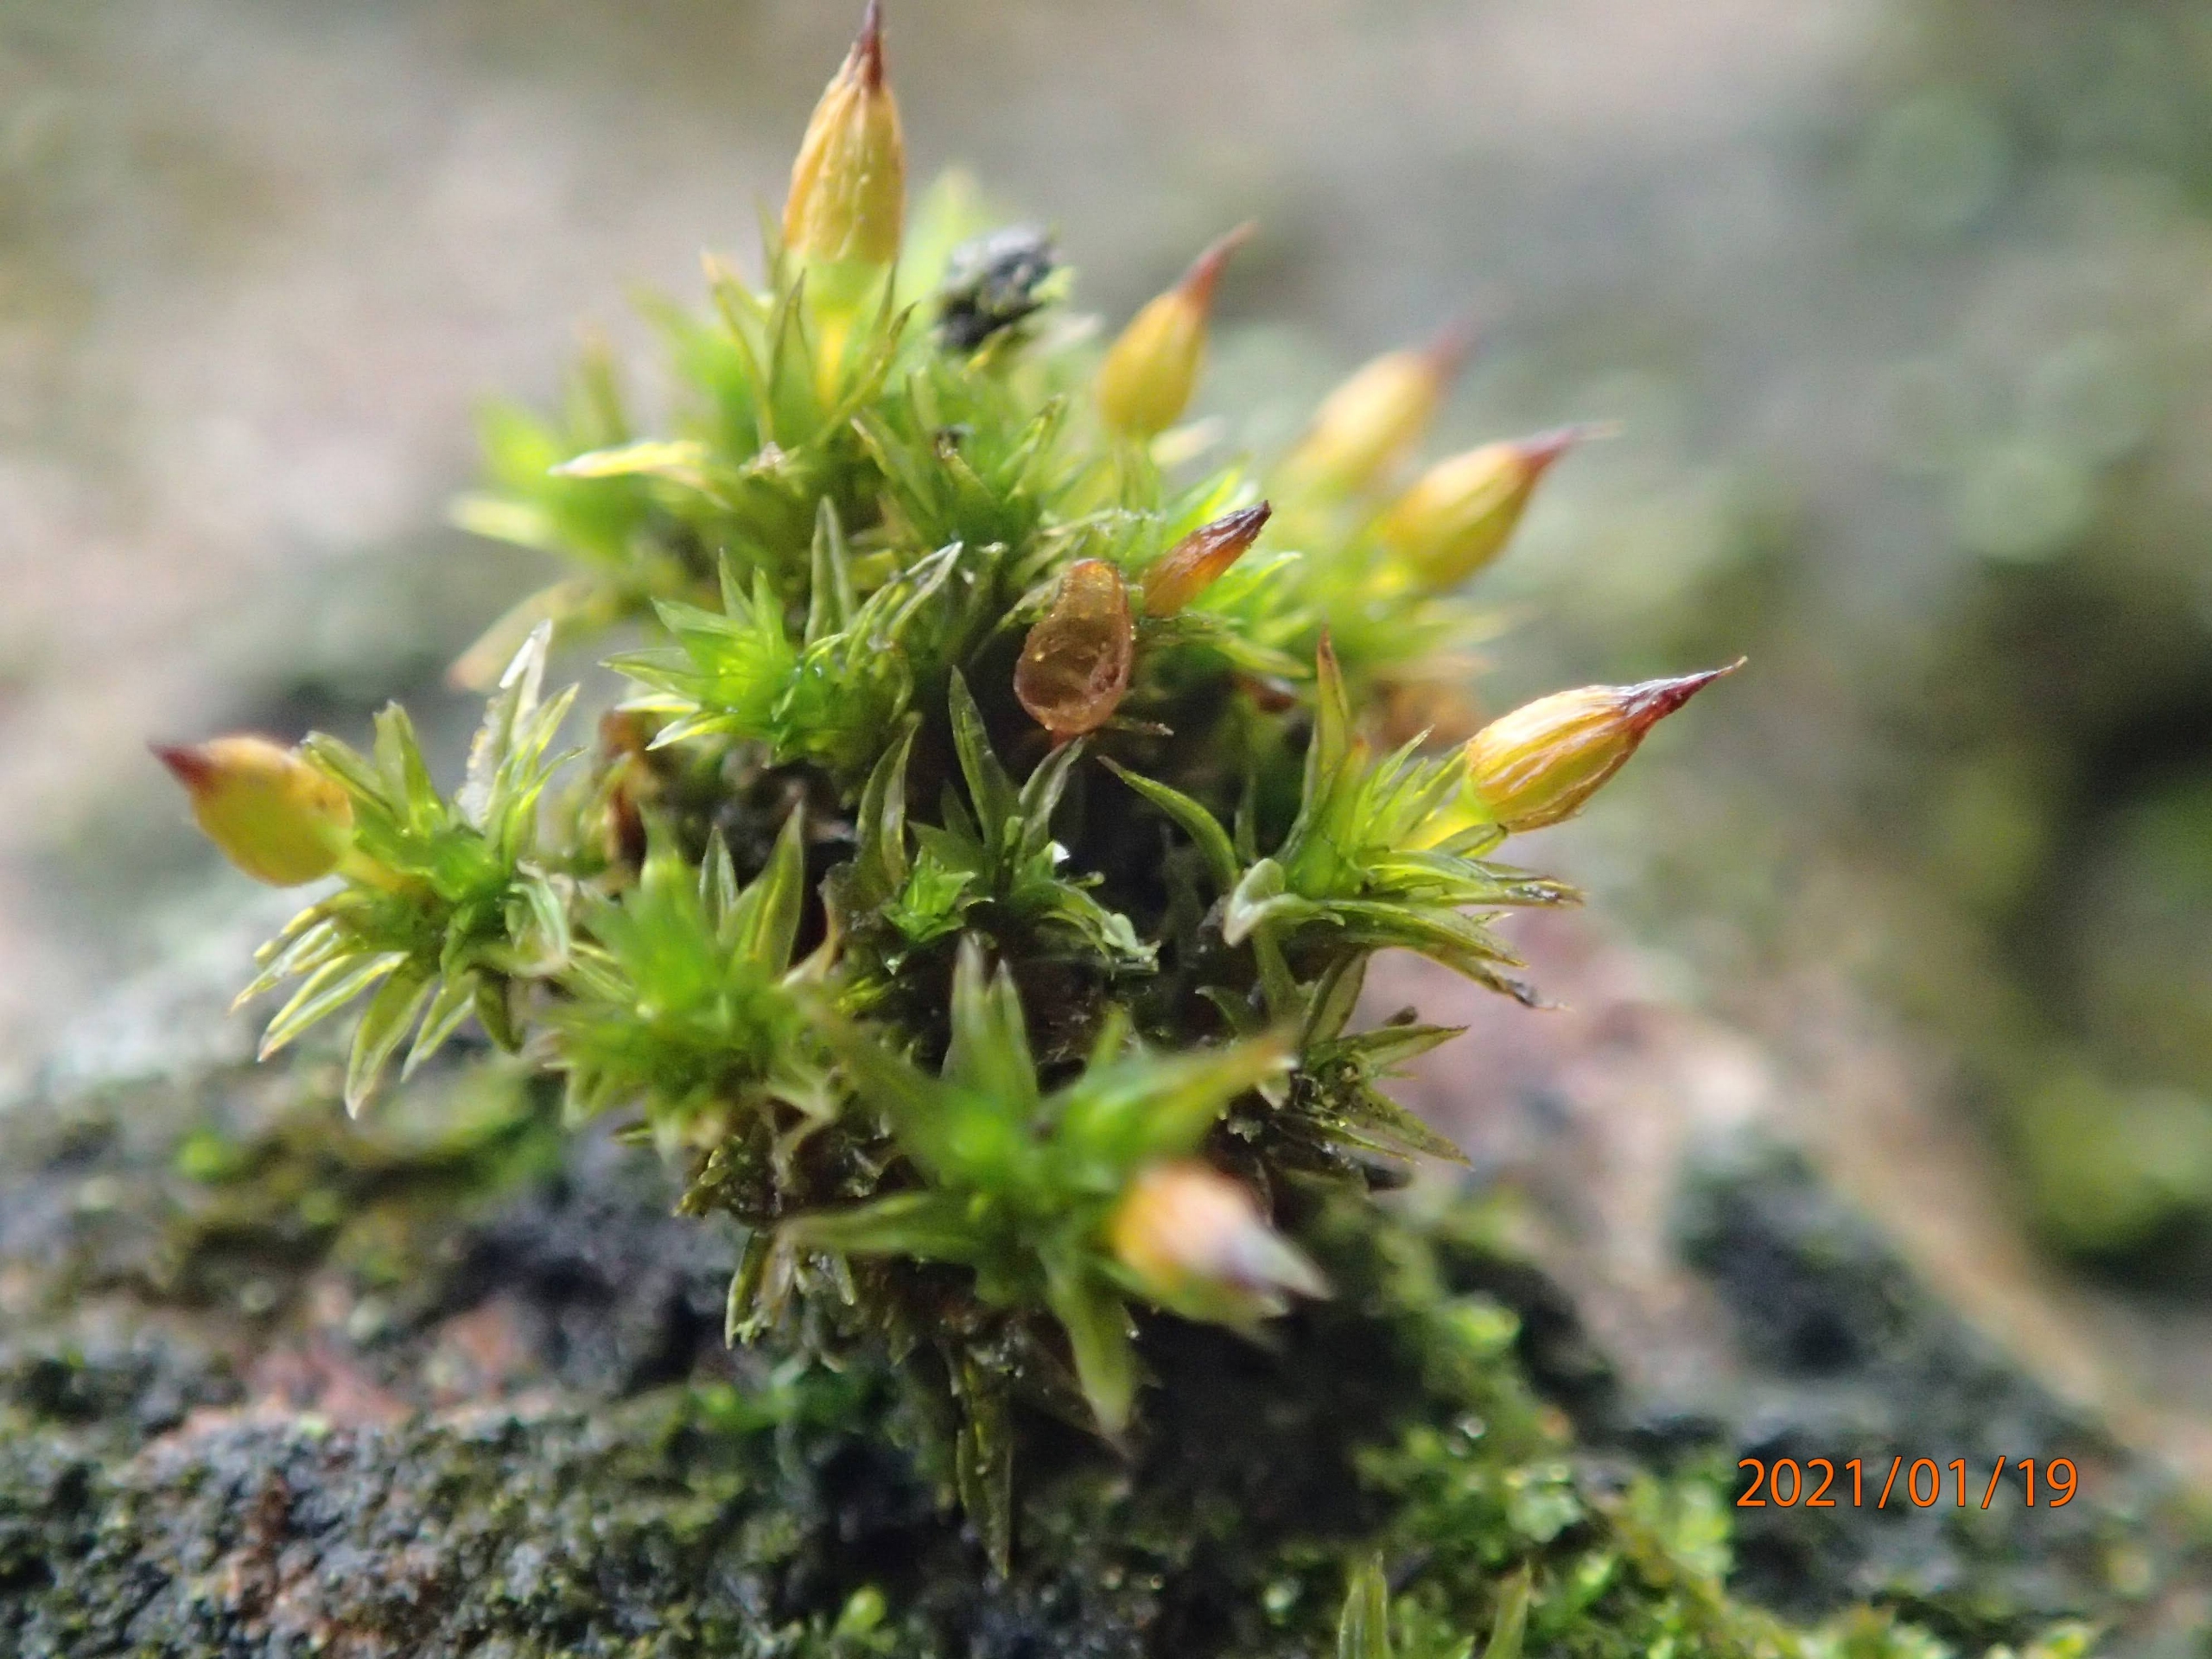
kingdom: Plantae
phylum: Bryophyta
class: Bryopsida
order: Orthotrichales
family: Orthotrichaceae
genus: Orthotrichum
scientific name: Orthotrichum anomalum
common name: Mørk furehætte
